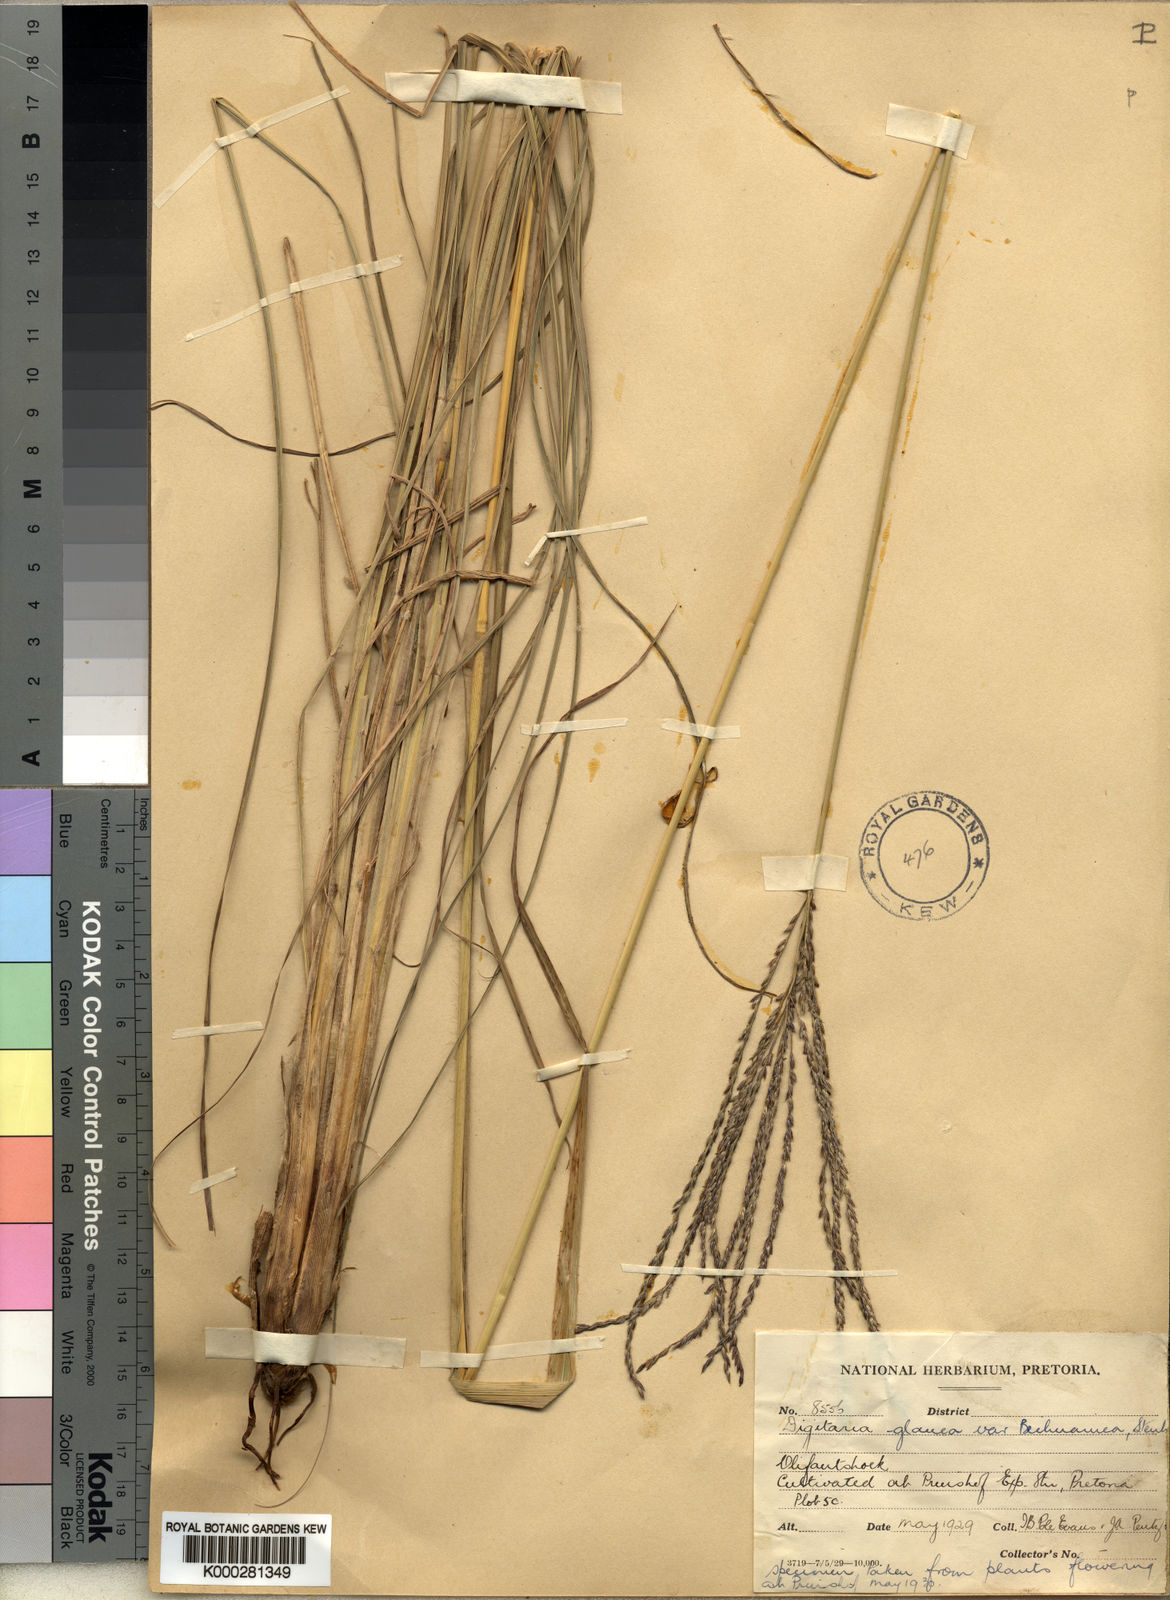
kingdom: Plantae
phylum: Tracheophyta
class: Liliopsida
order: Poales
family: Poaceae
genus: Digitaria
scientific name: Digitaria eriantha
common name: Digitgrass
